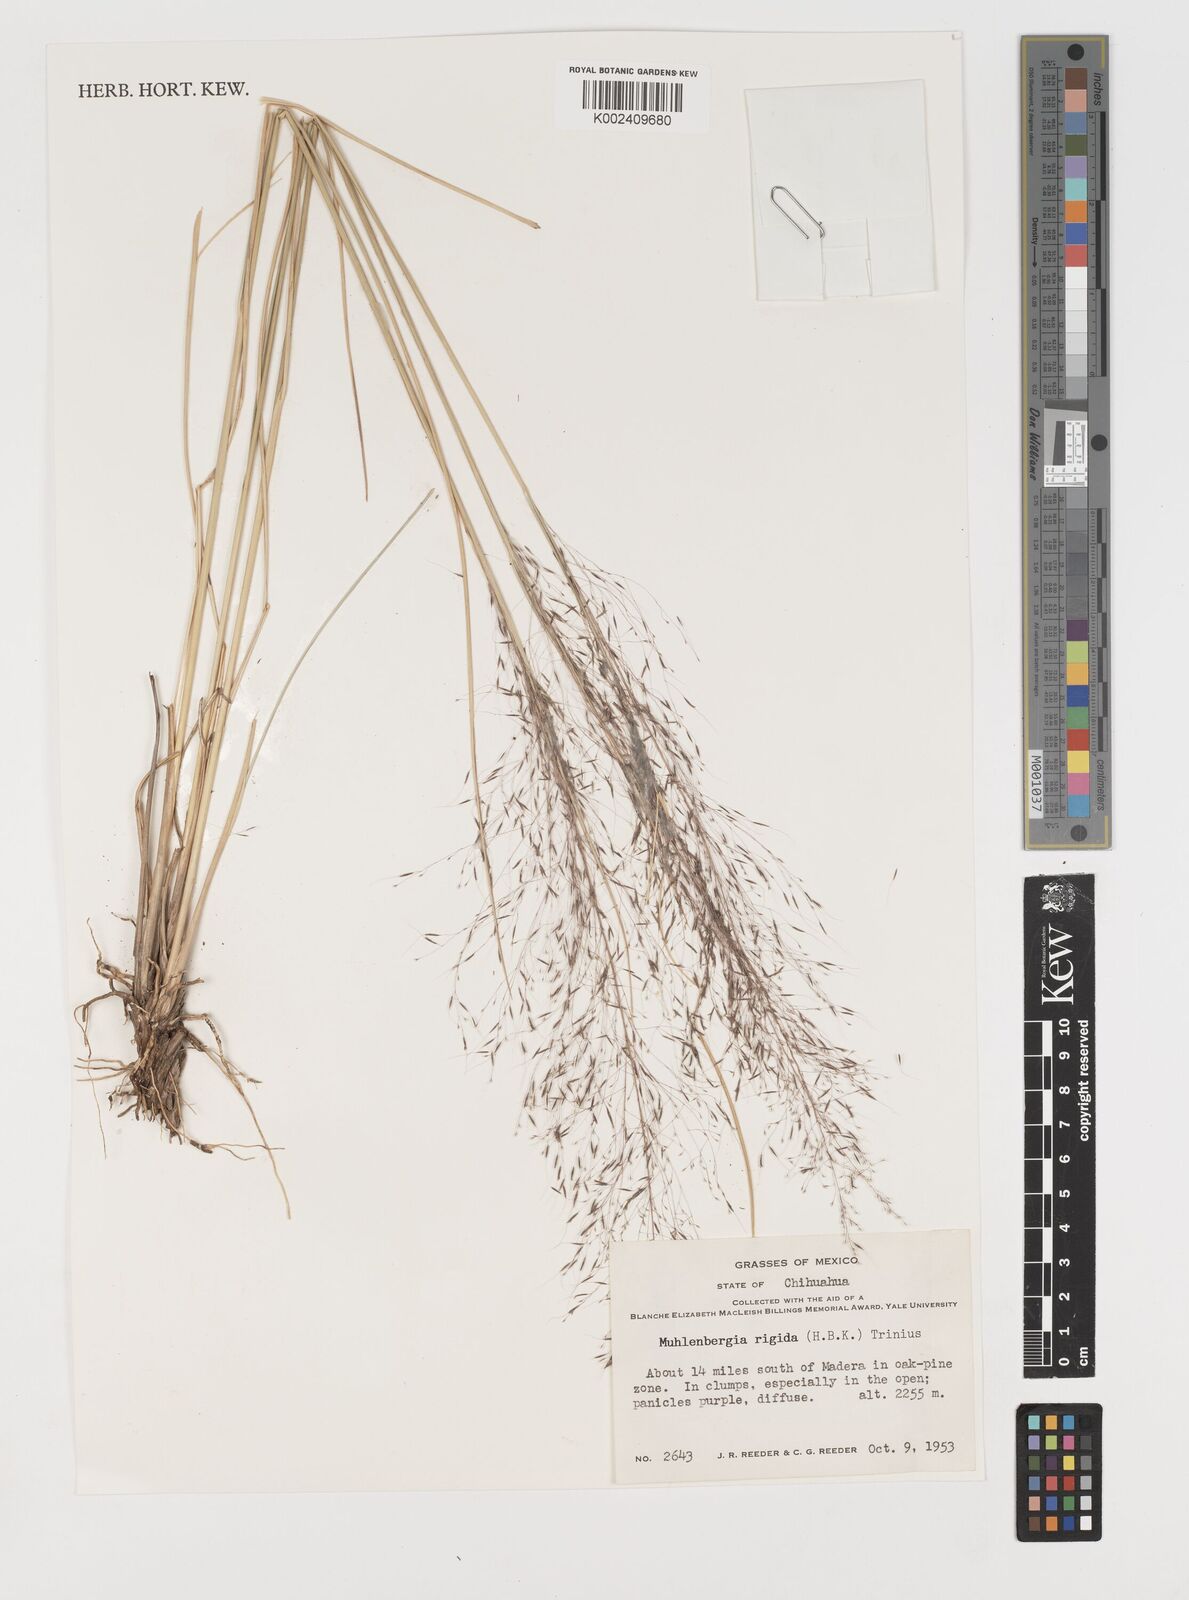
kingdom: Plantae
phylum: Tracheophyta
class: Liliopsida
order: Poales
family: Poaceae
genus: Muhlenbergia
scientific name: Muhlenbergia rigida
